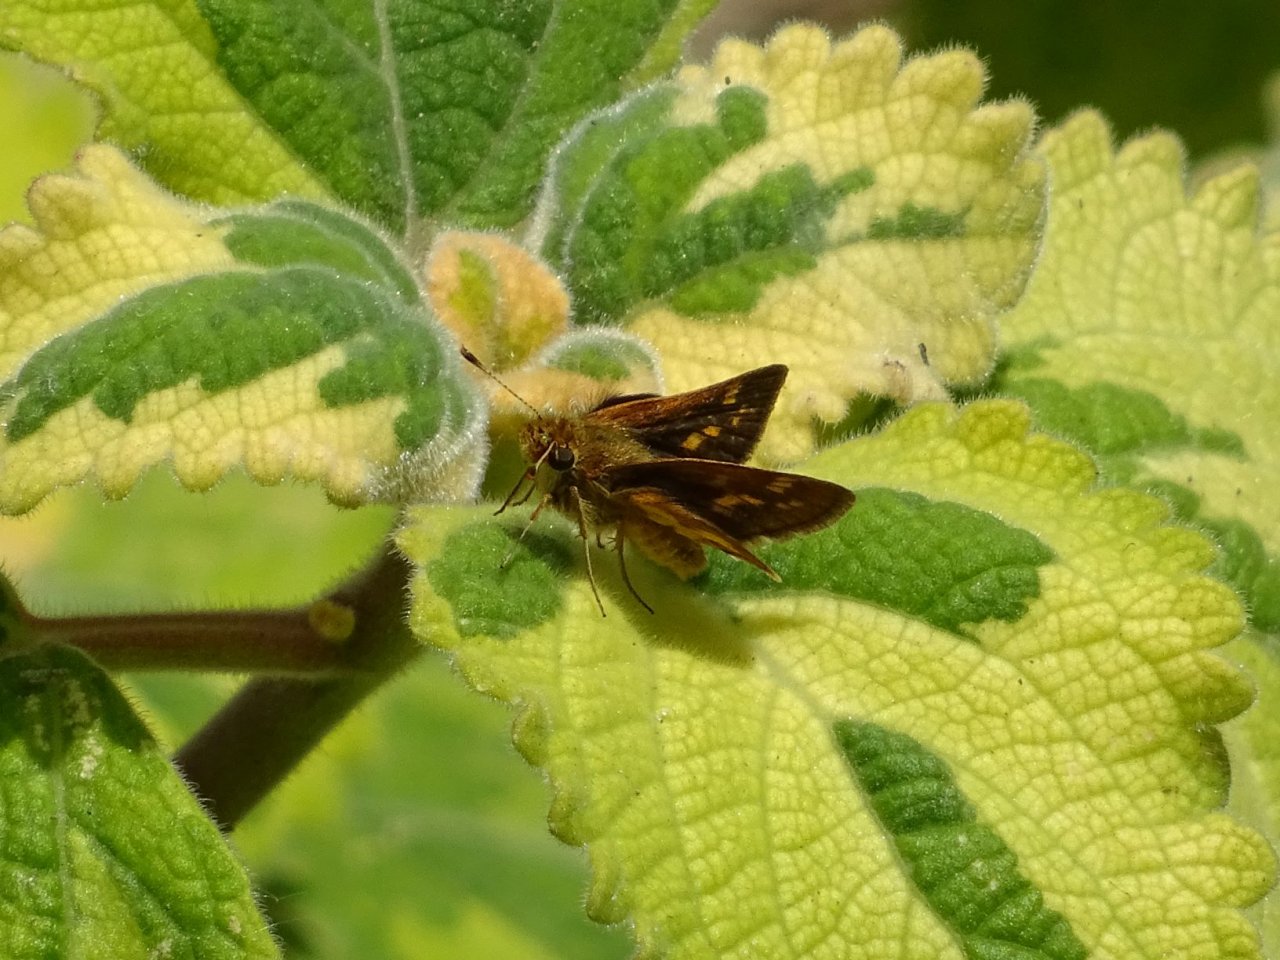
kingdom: Animalia
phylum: Arthropoda
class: Insecta
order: Lepidoptera
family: Hesperiidae
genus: Polites
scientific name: Polites coras
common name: Peck's Skipper
